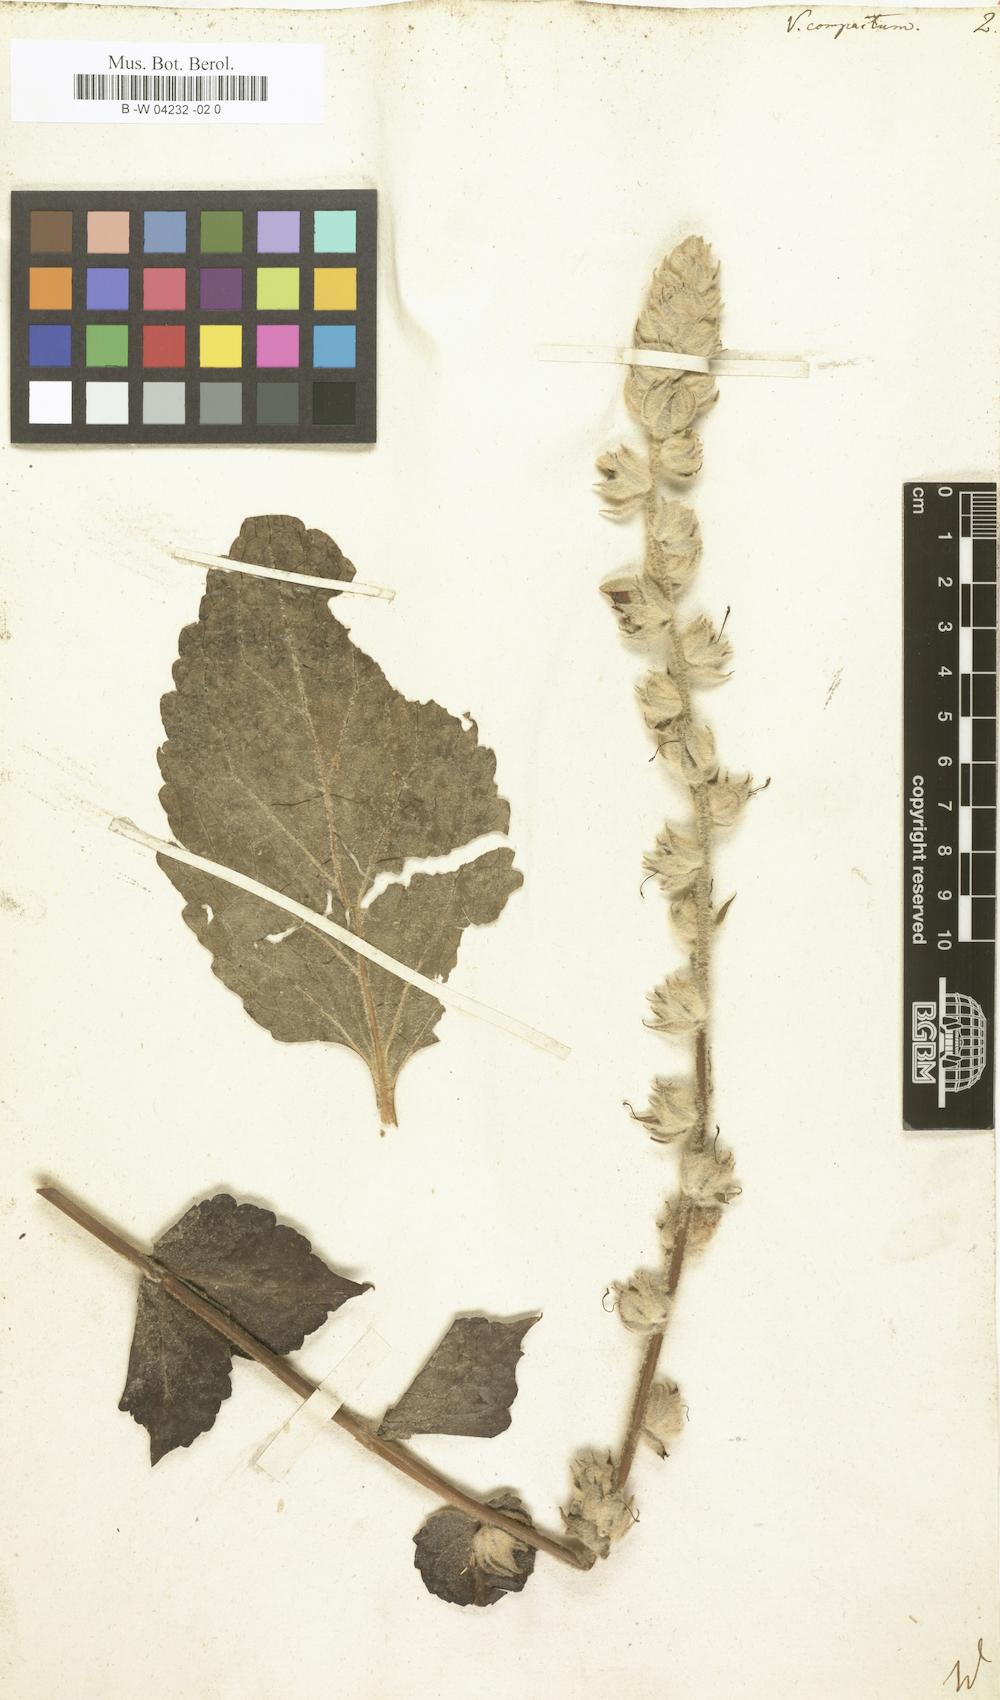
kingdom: Plantae
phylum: Tracheophyta
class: Magnoliopsida
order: Lamiales
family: Scrophulariaceae
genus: Verbascum
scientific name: Verbascum
